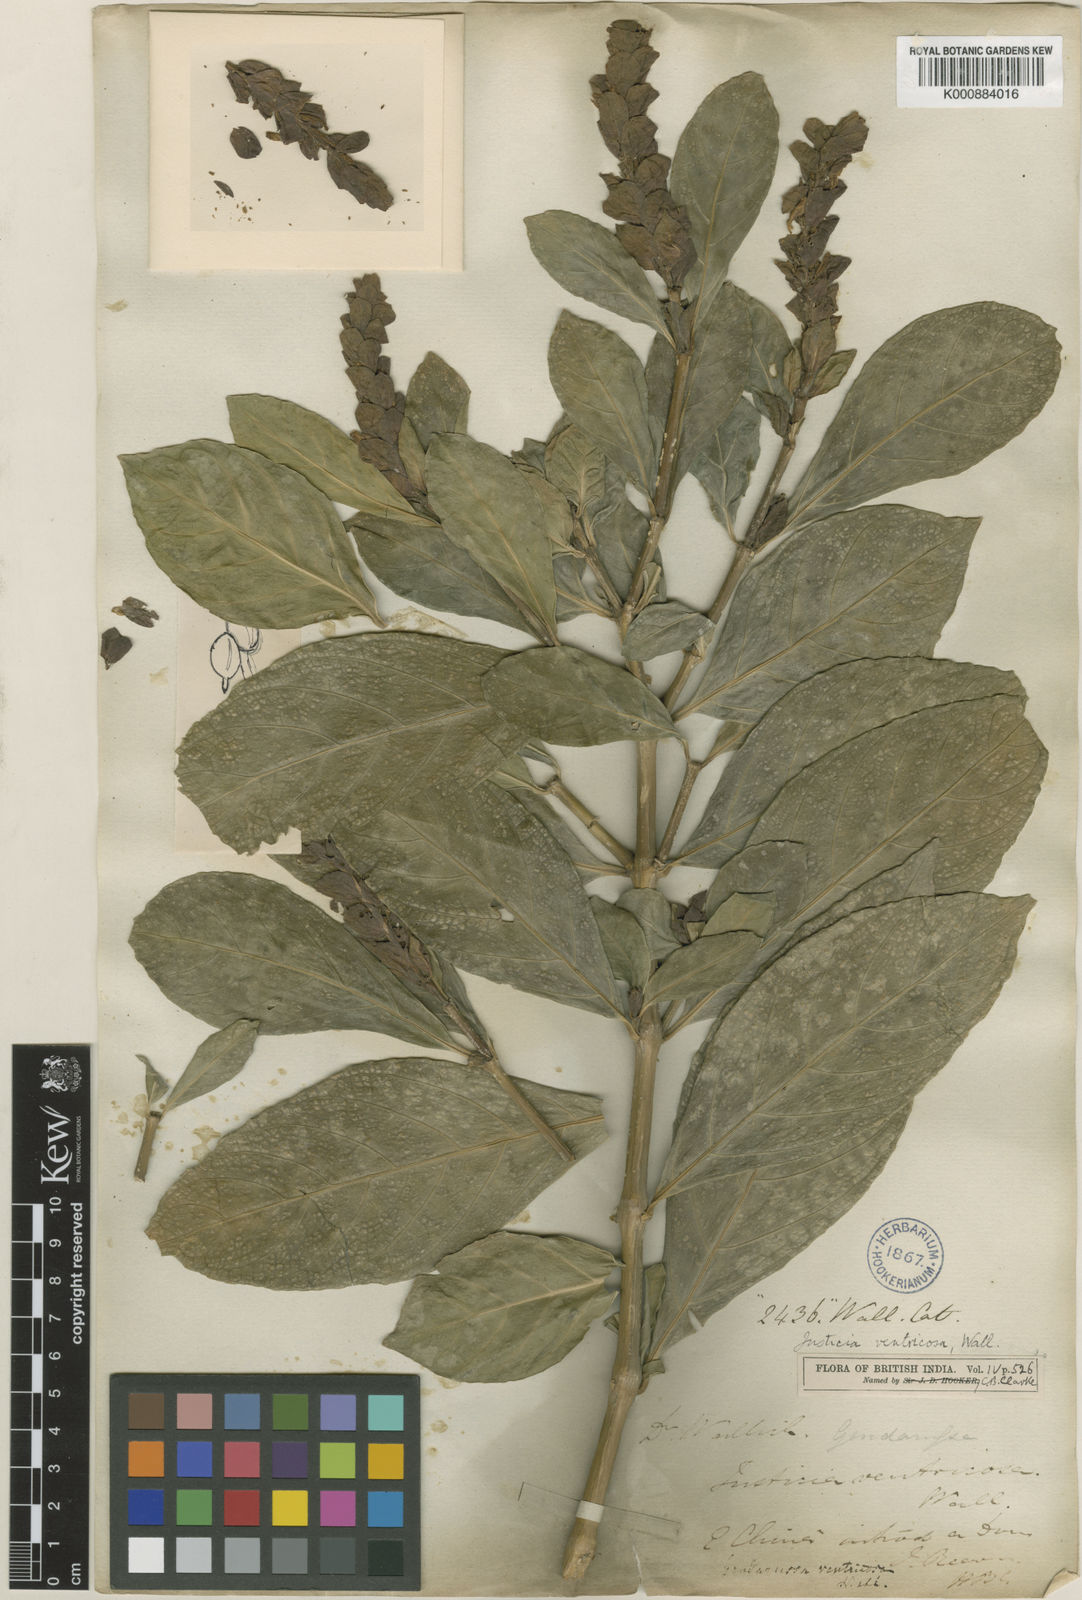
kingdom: Plantae
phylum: Tracheophyta
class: Magnoliopsida
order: Lamiales
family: Acanthaceae
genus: Justicia
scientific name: Justicia
